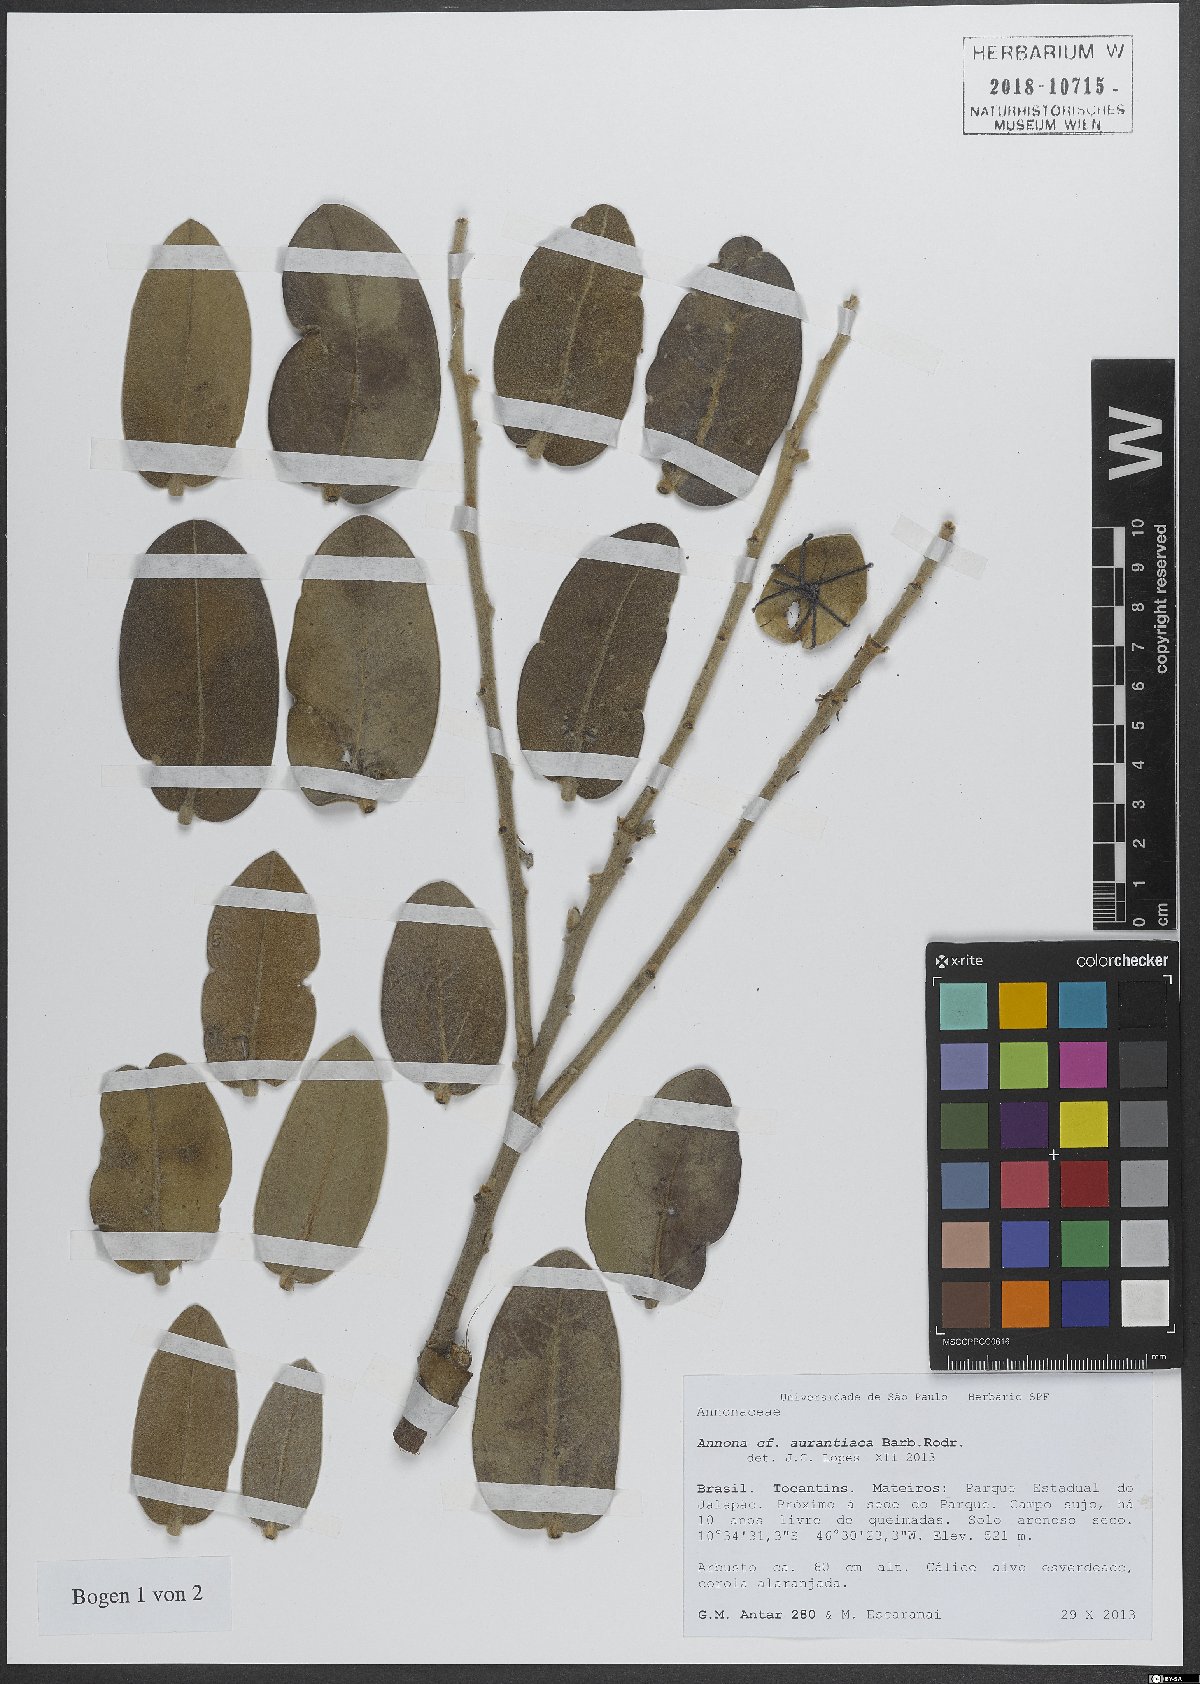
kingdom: Plantae
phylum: Tracheophyta
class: Magnoliopsida
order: Magnoliales
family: Annonaceae
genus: Annona
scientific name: Annona aurantiaca
